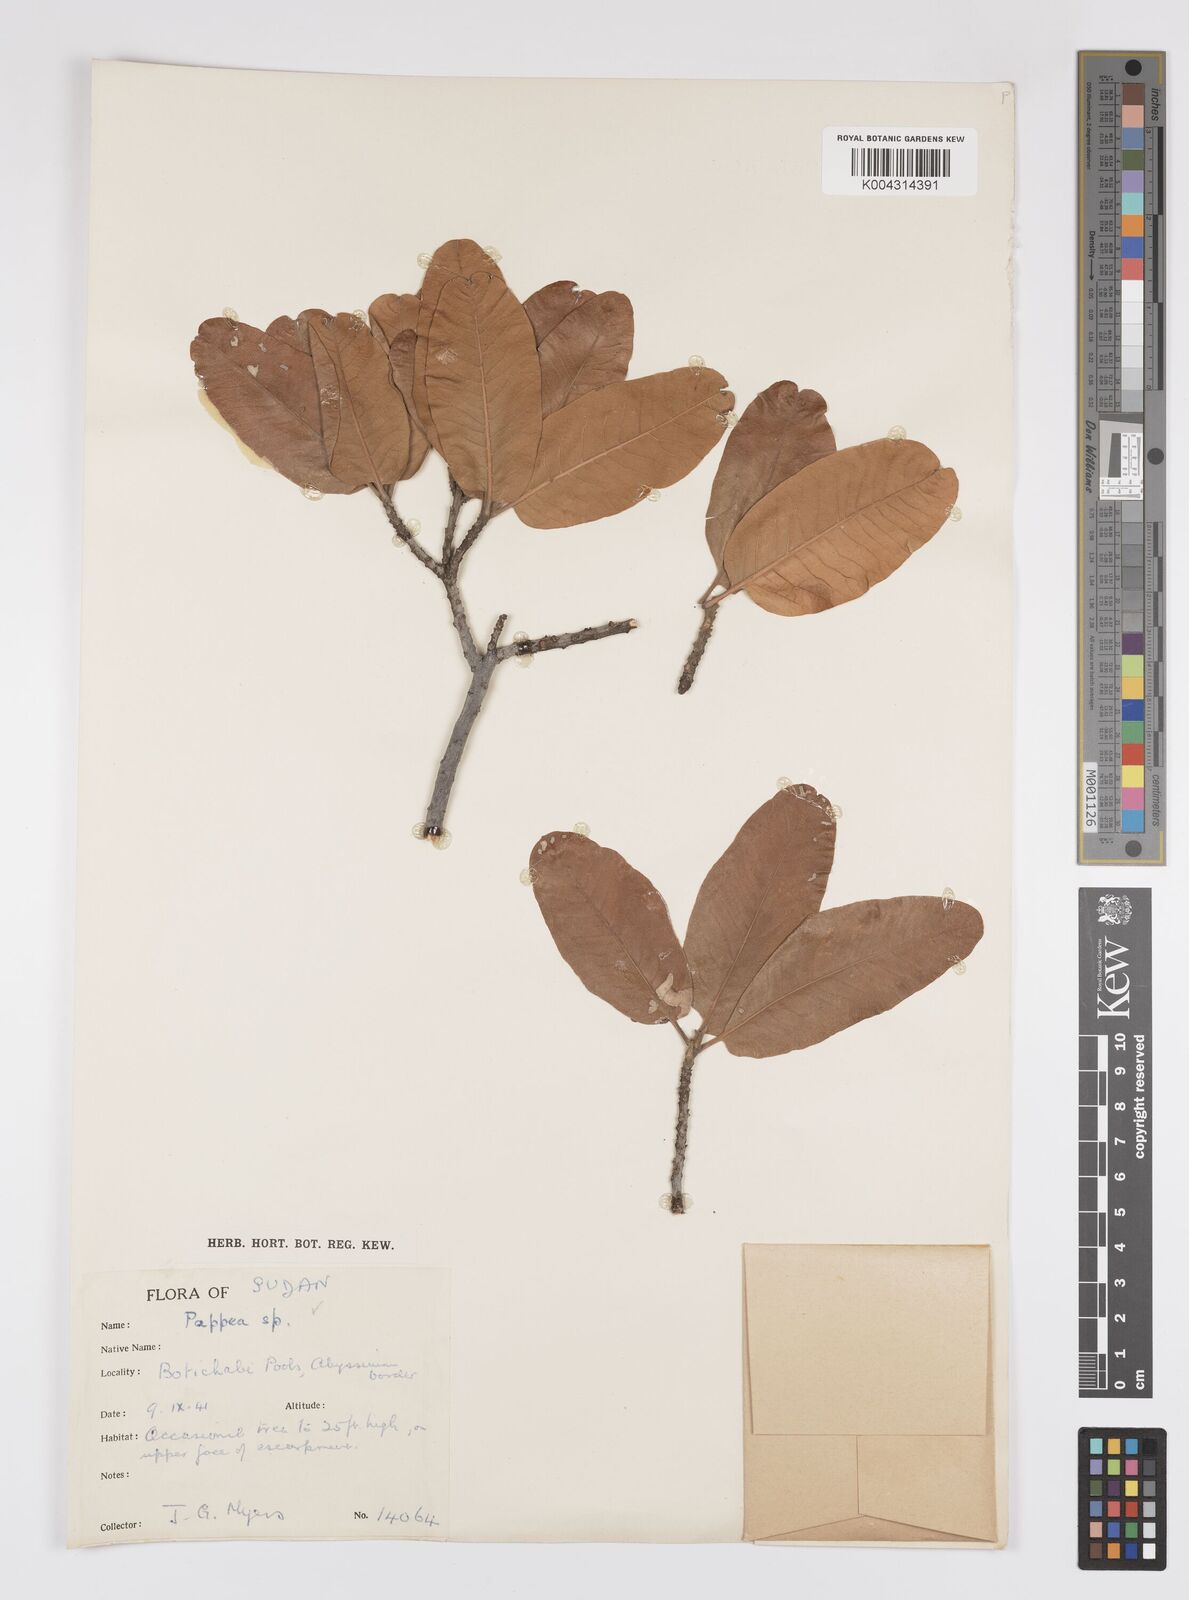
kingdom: Plantae
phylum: Tracheophyta
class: Magnoliopsida
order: Sapindales
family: Sapindaceae
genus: Pappea
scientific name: Pappea
